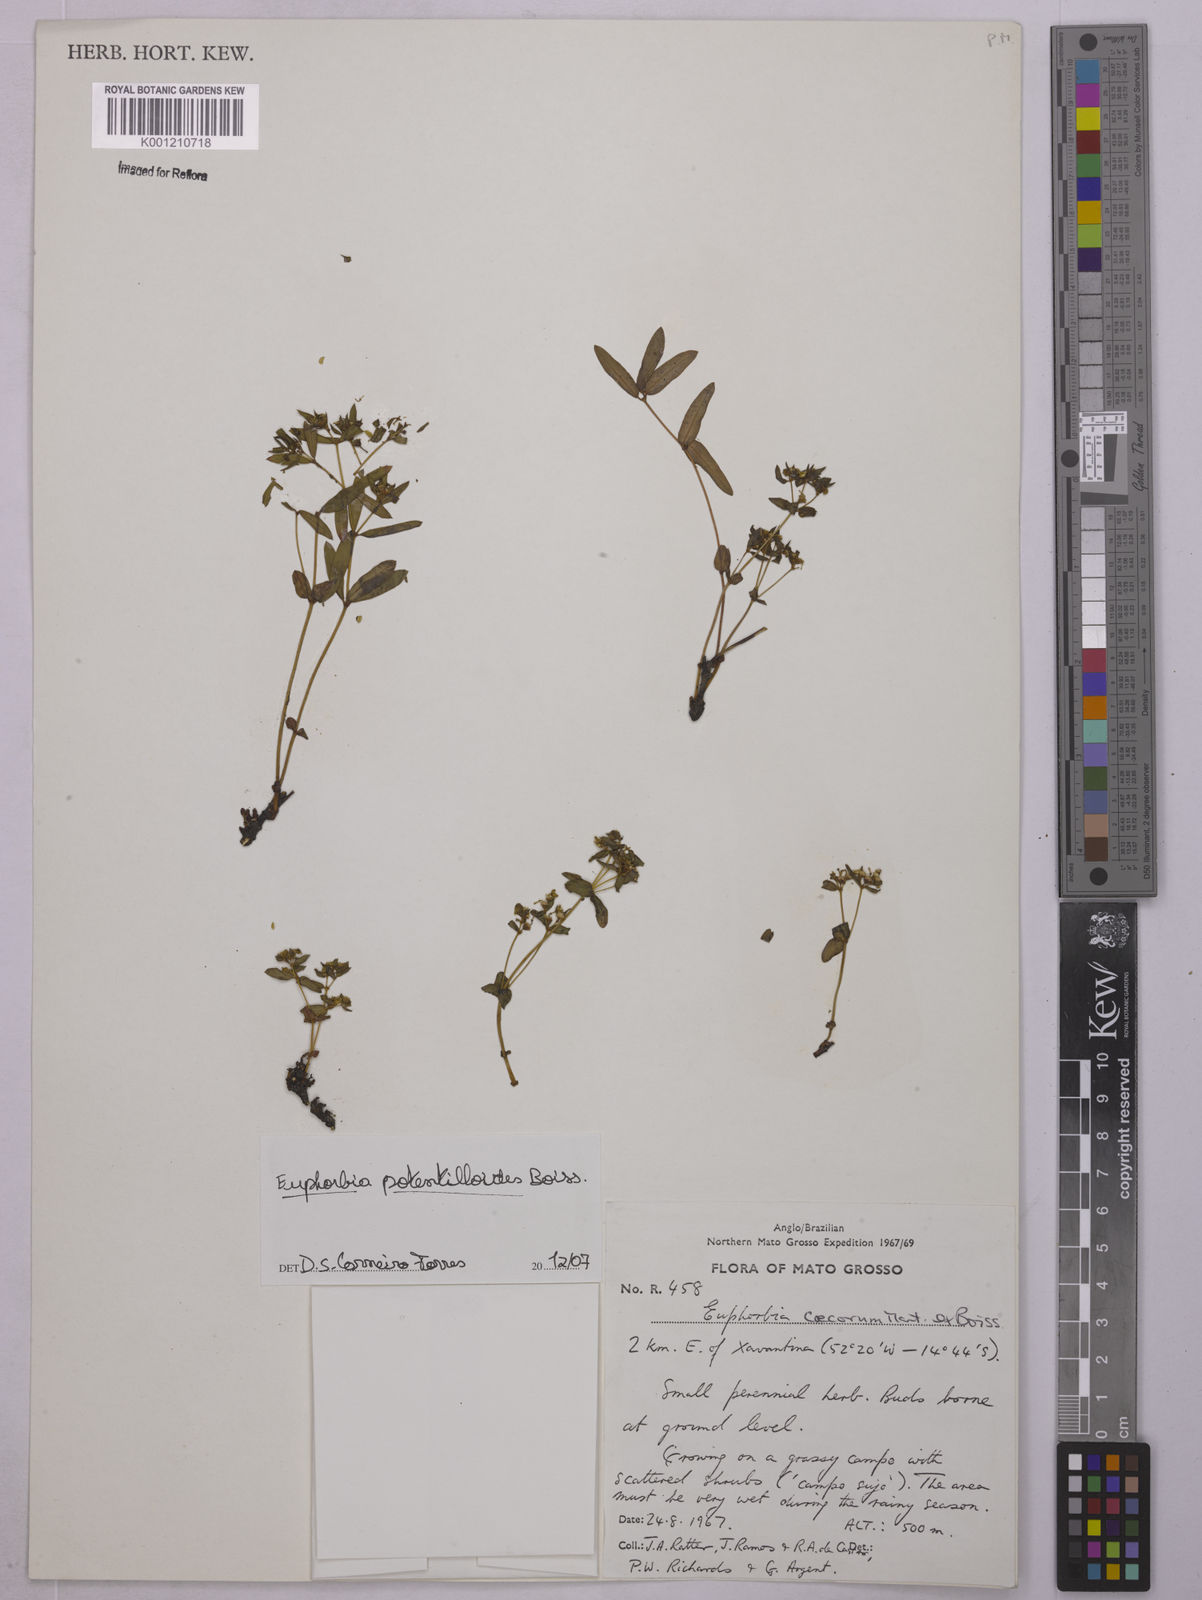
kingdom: Plantae
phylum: Tracheophyta
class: Magnoliopsida
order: Malpighiales
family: Euphorbiaceae
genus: Euphorbia
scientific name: Euphorbia potentilloides
